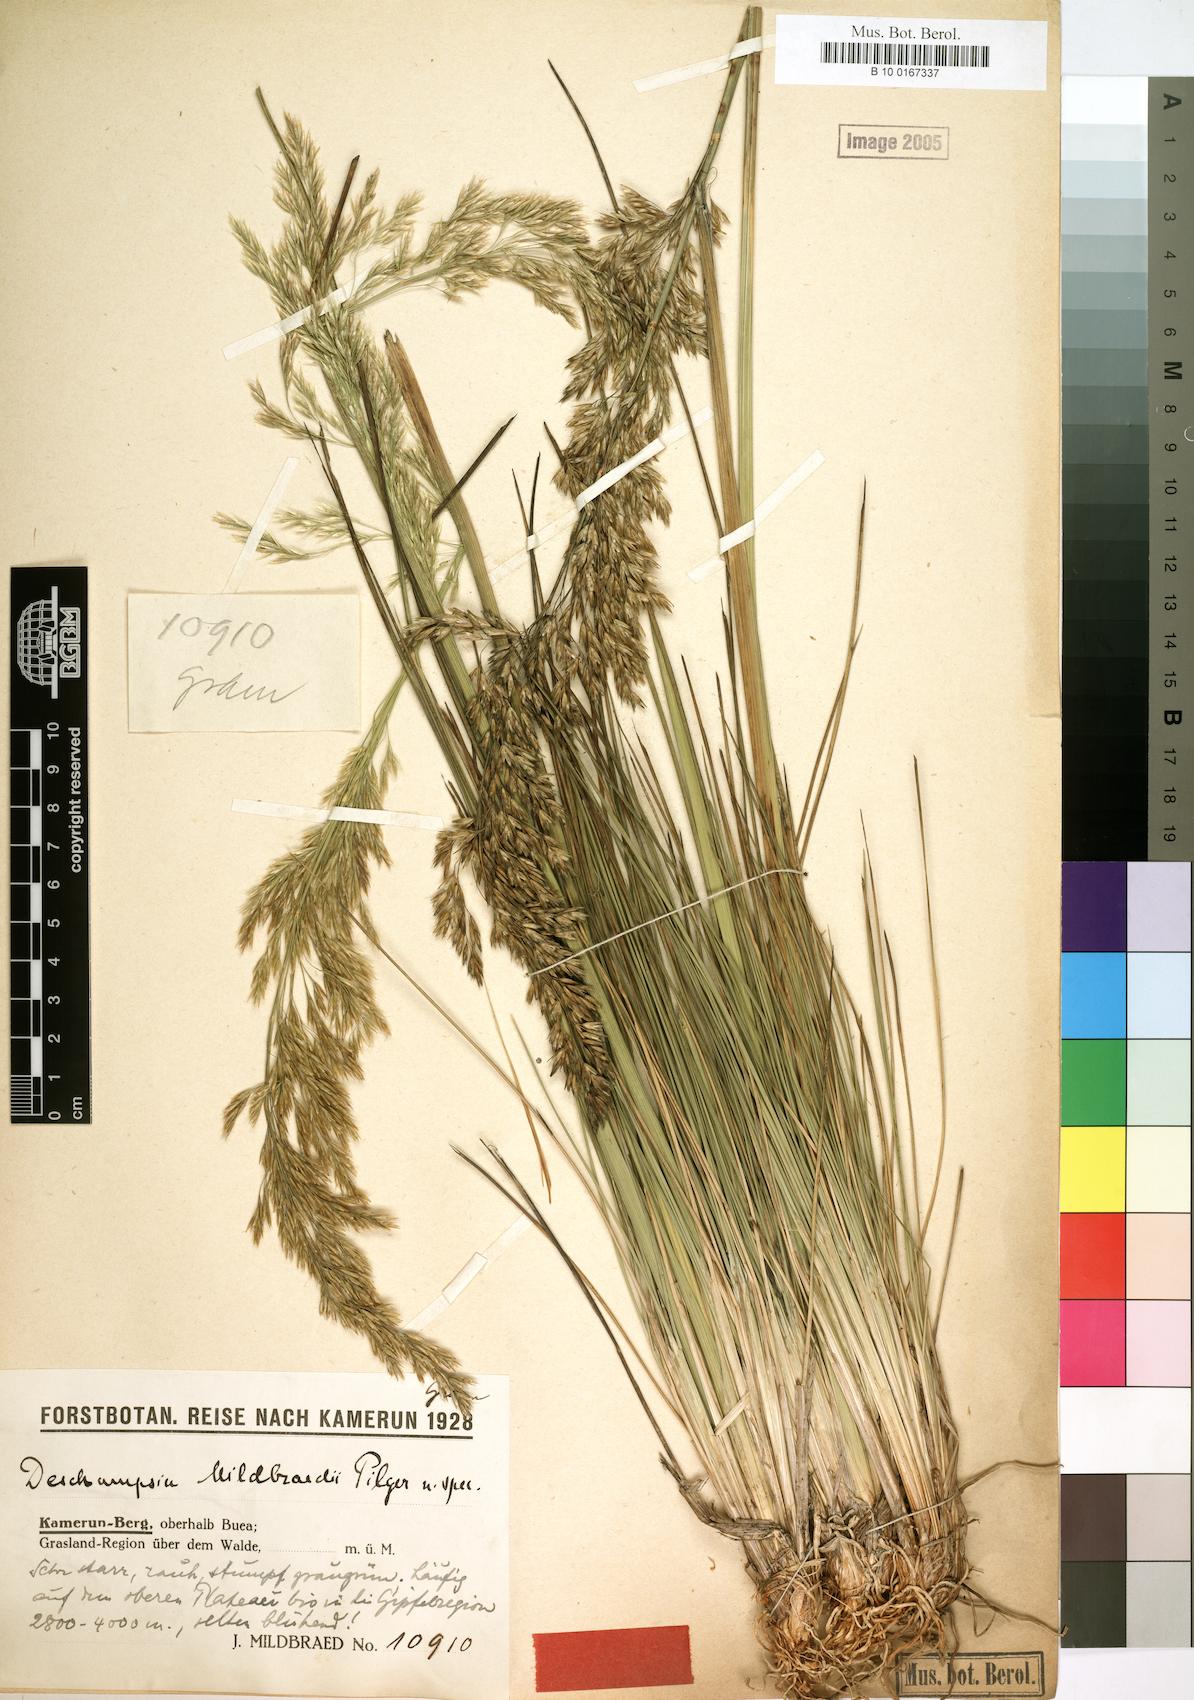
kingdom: Plantae
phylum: Tracheophyta
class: Liliopsida
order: Poales
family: Poaceae
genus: Deschampsia
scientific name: Deschampsia mildbraedii
